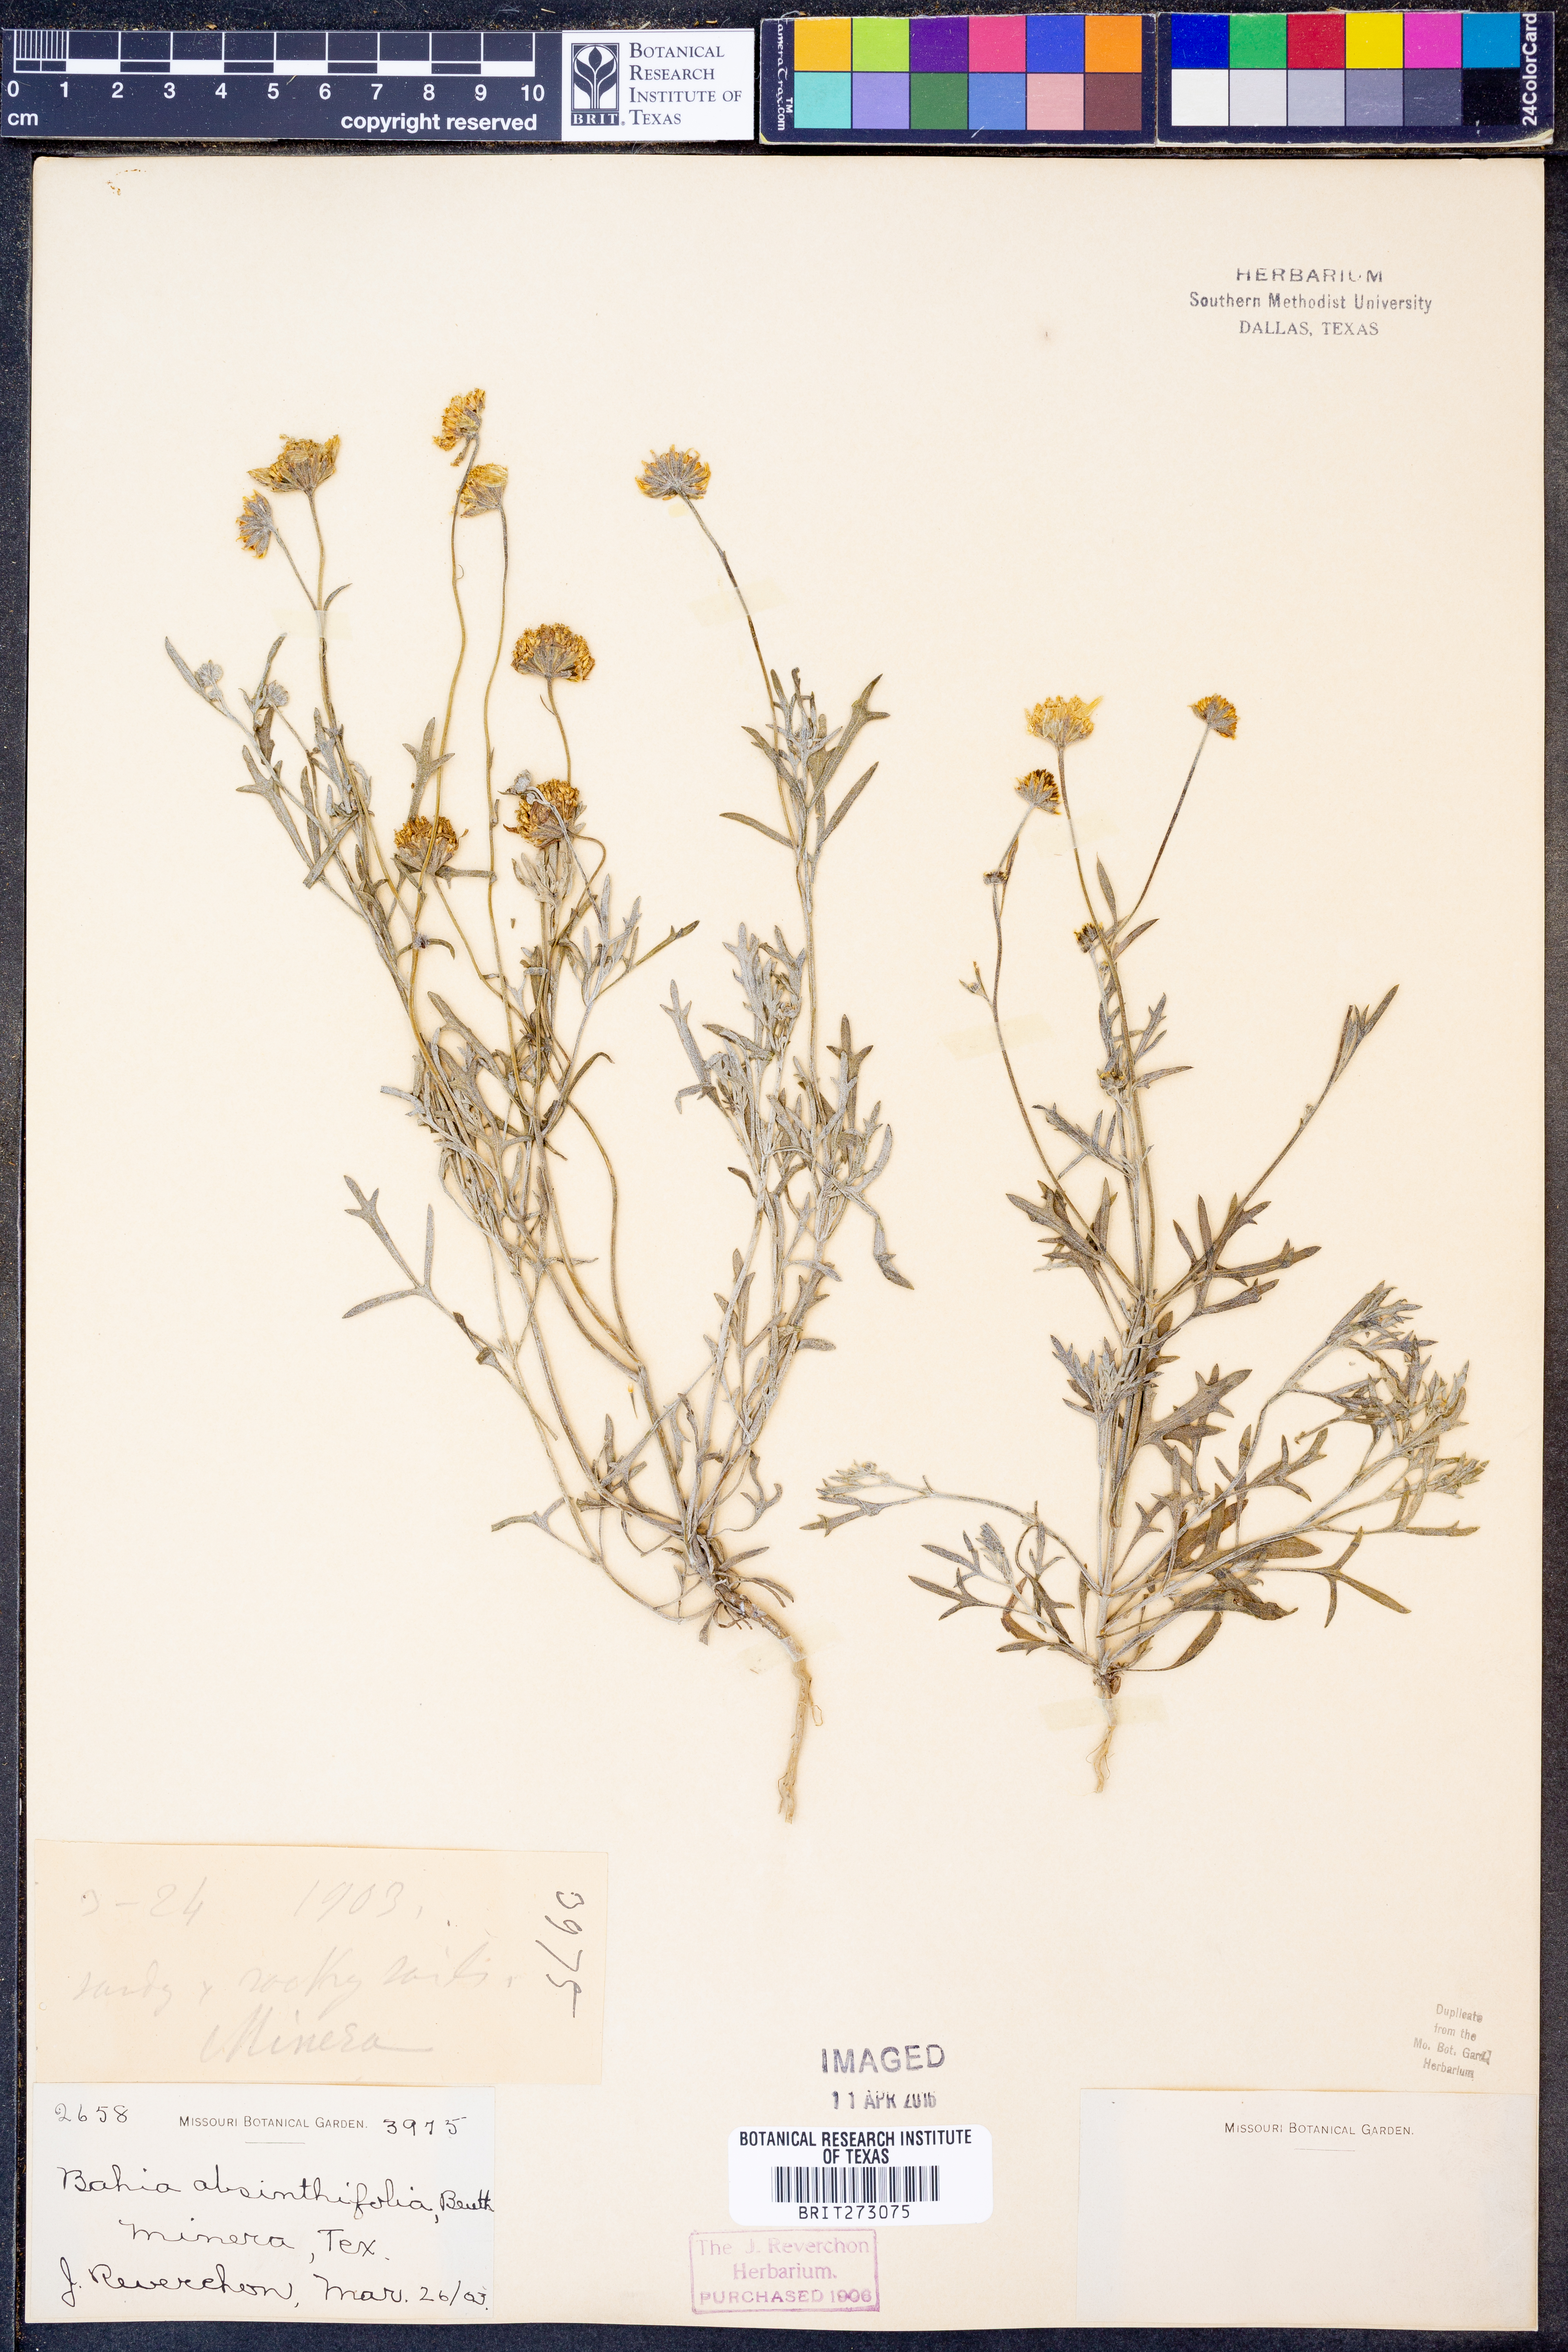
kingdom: Plantae
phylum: Tracheophyta
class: Magnoliopsida
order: Asterales
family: Asteraceae
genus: Picradeniopsis
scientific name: Picradeniopsis absinthifolia
